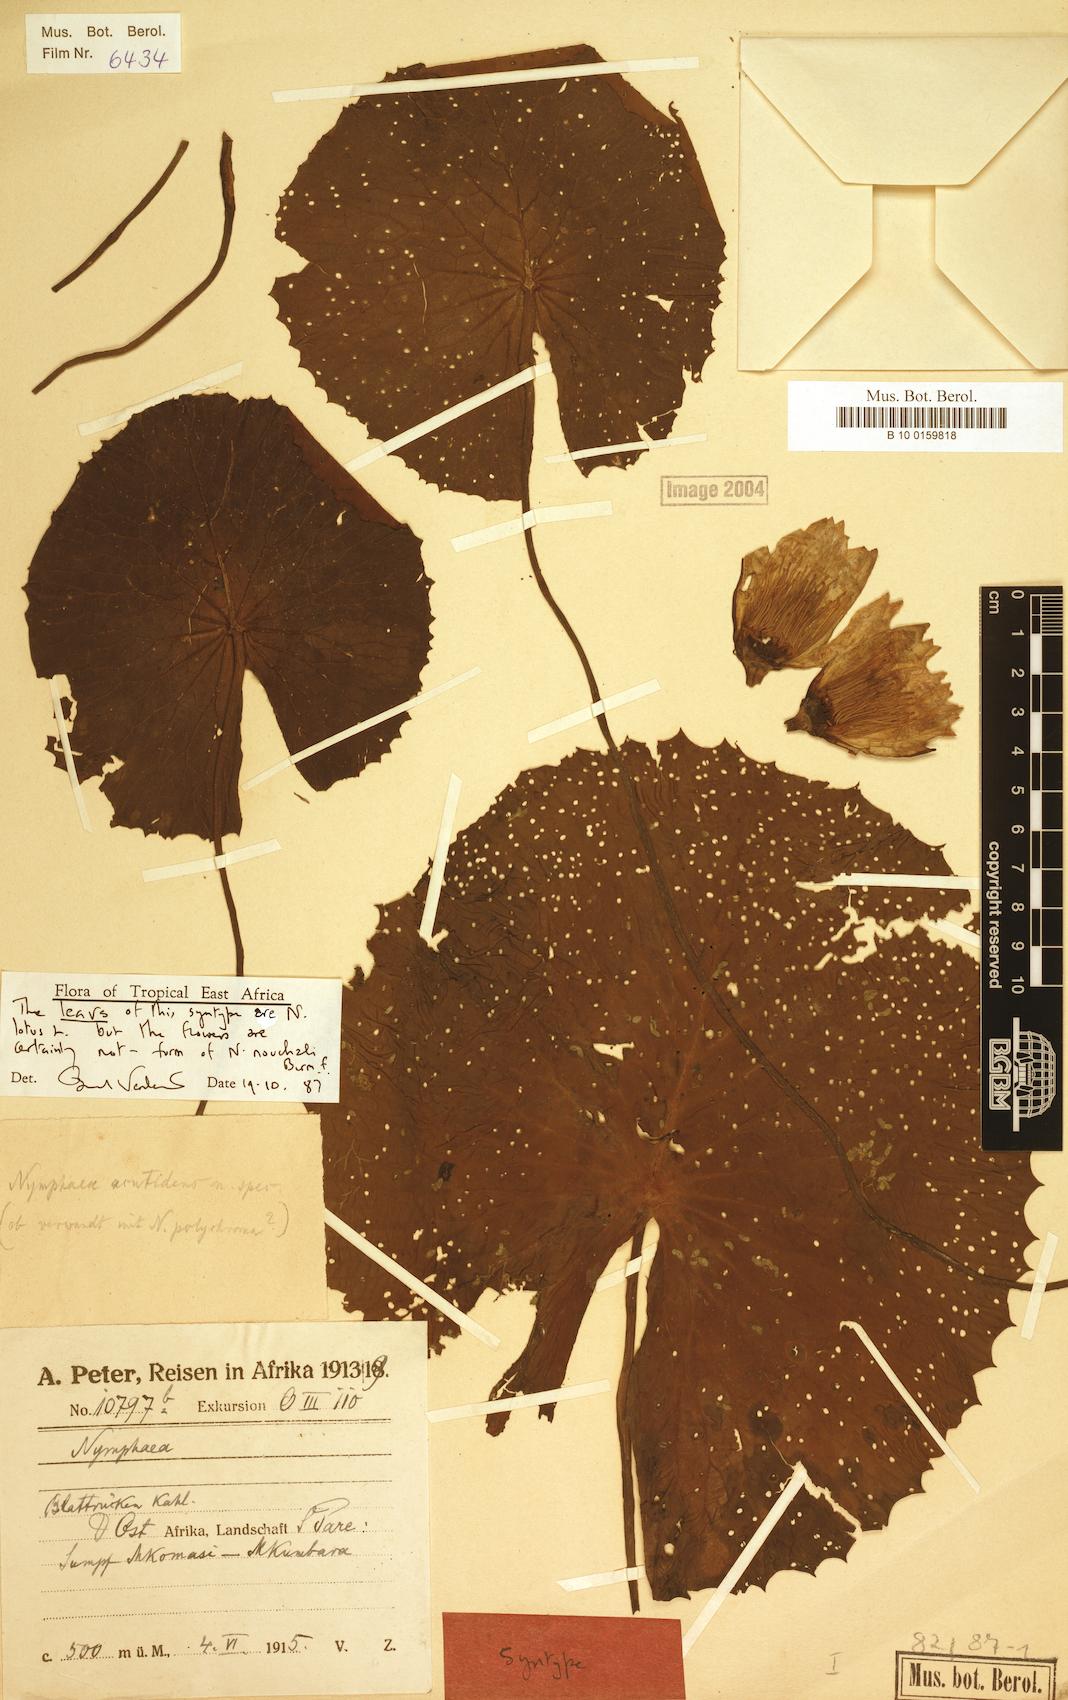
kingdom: Plantae
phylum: Tracheophyta
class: Magnoliopsida
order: Nymphaeales
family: Nymphaeaceae
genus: Nymphaea
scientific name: Nymphaea lotus
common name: White egyptian lotus
